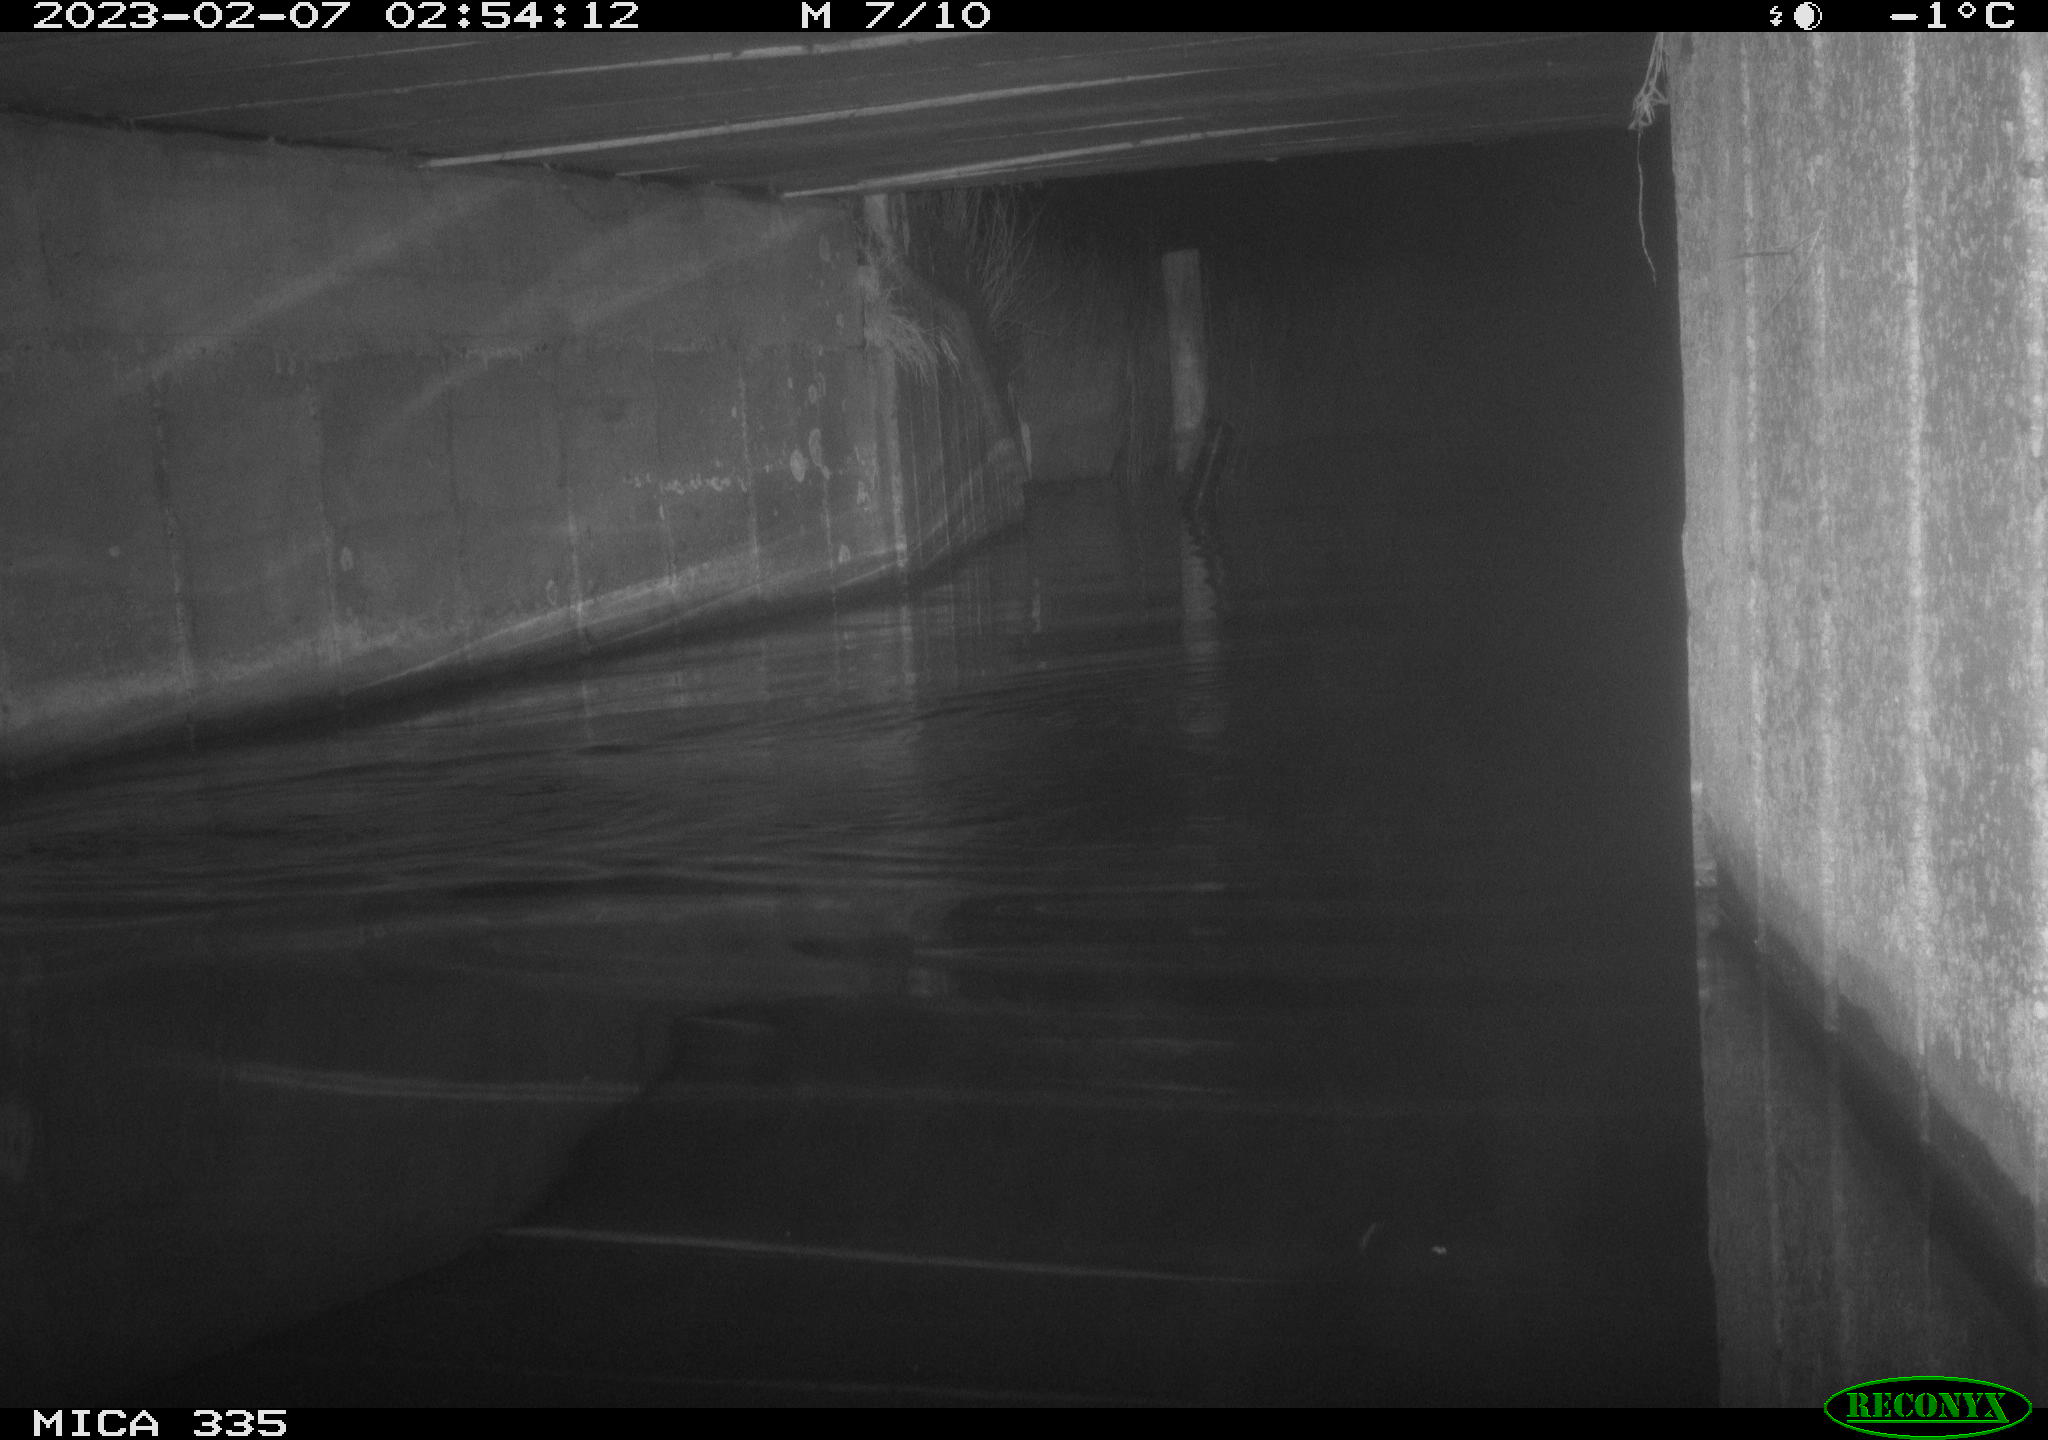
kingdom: Animalia
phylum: Chordata
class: Mammalia
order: Carnivora
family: Mustelidae
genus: Lutra
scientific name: Lutra lutra
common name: European otter
